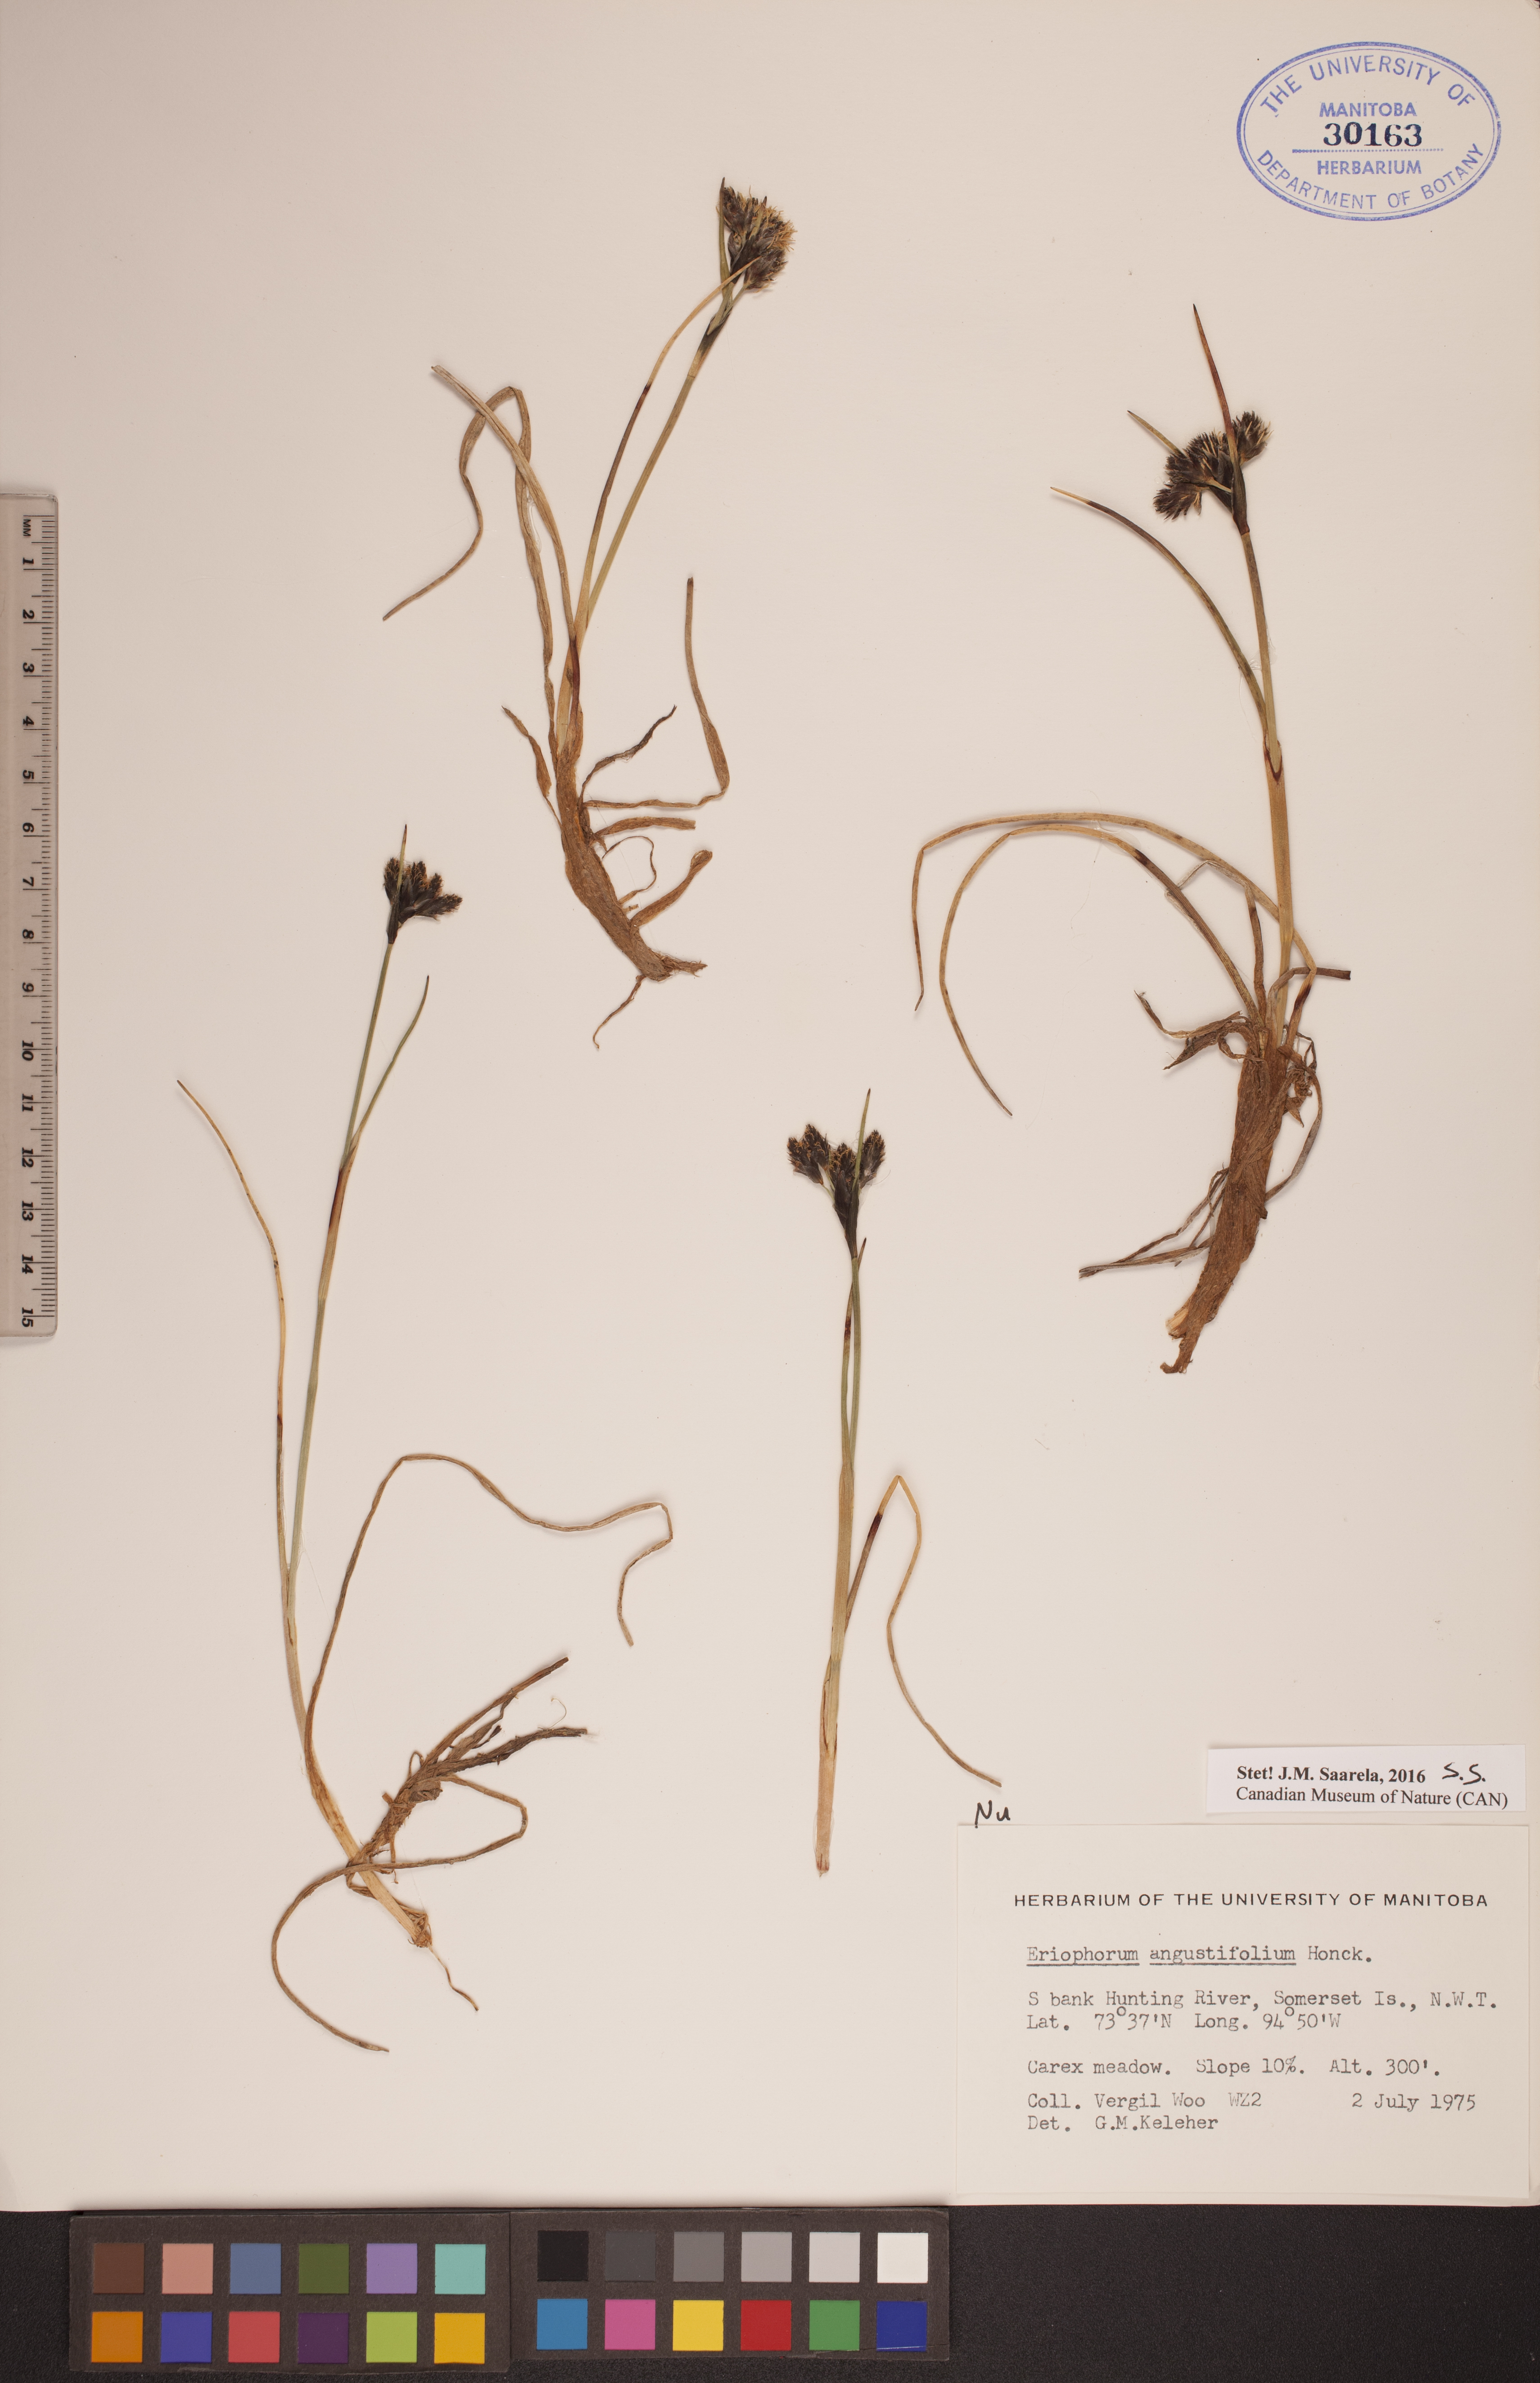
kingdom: Plantae
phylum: Tracheophyta
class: Liliopsida
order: Poales
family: Cyperaceae
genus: Eriophorum
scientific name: Eriophorum angustifolium
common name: Common cottongrass
